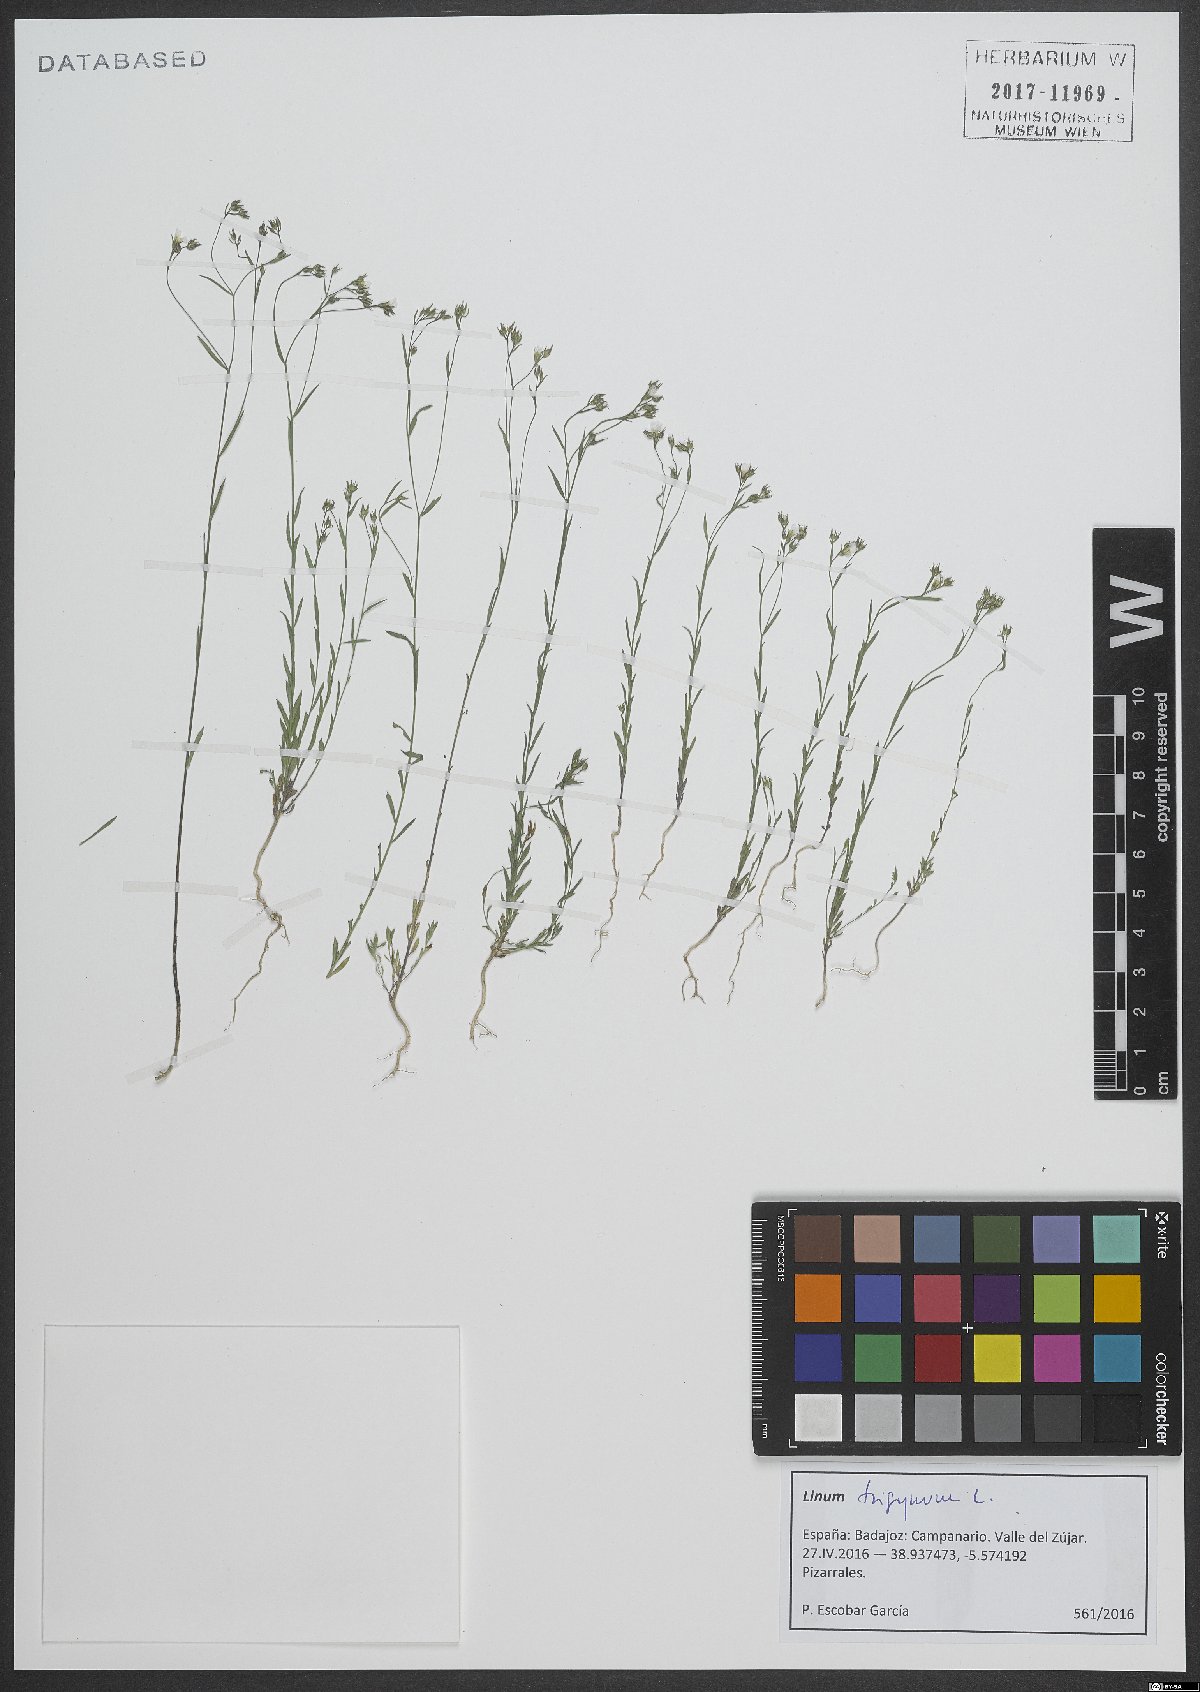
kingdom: Plantae
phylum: Tracheophyta
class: Magnoliopsida
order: Malpighiales
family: Linaceae
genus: Linum
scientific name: Linum trigynum
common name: French flax
